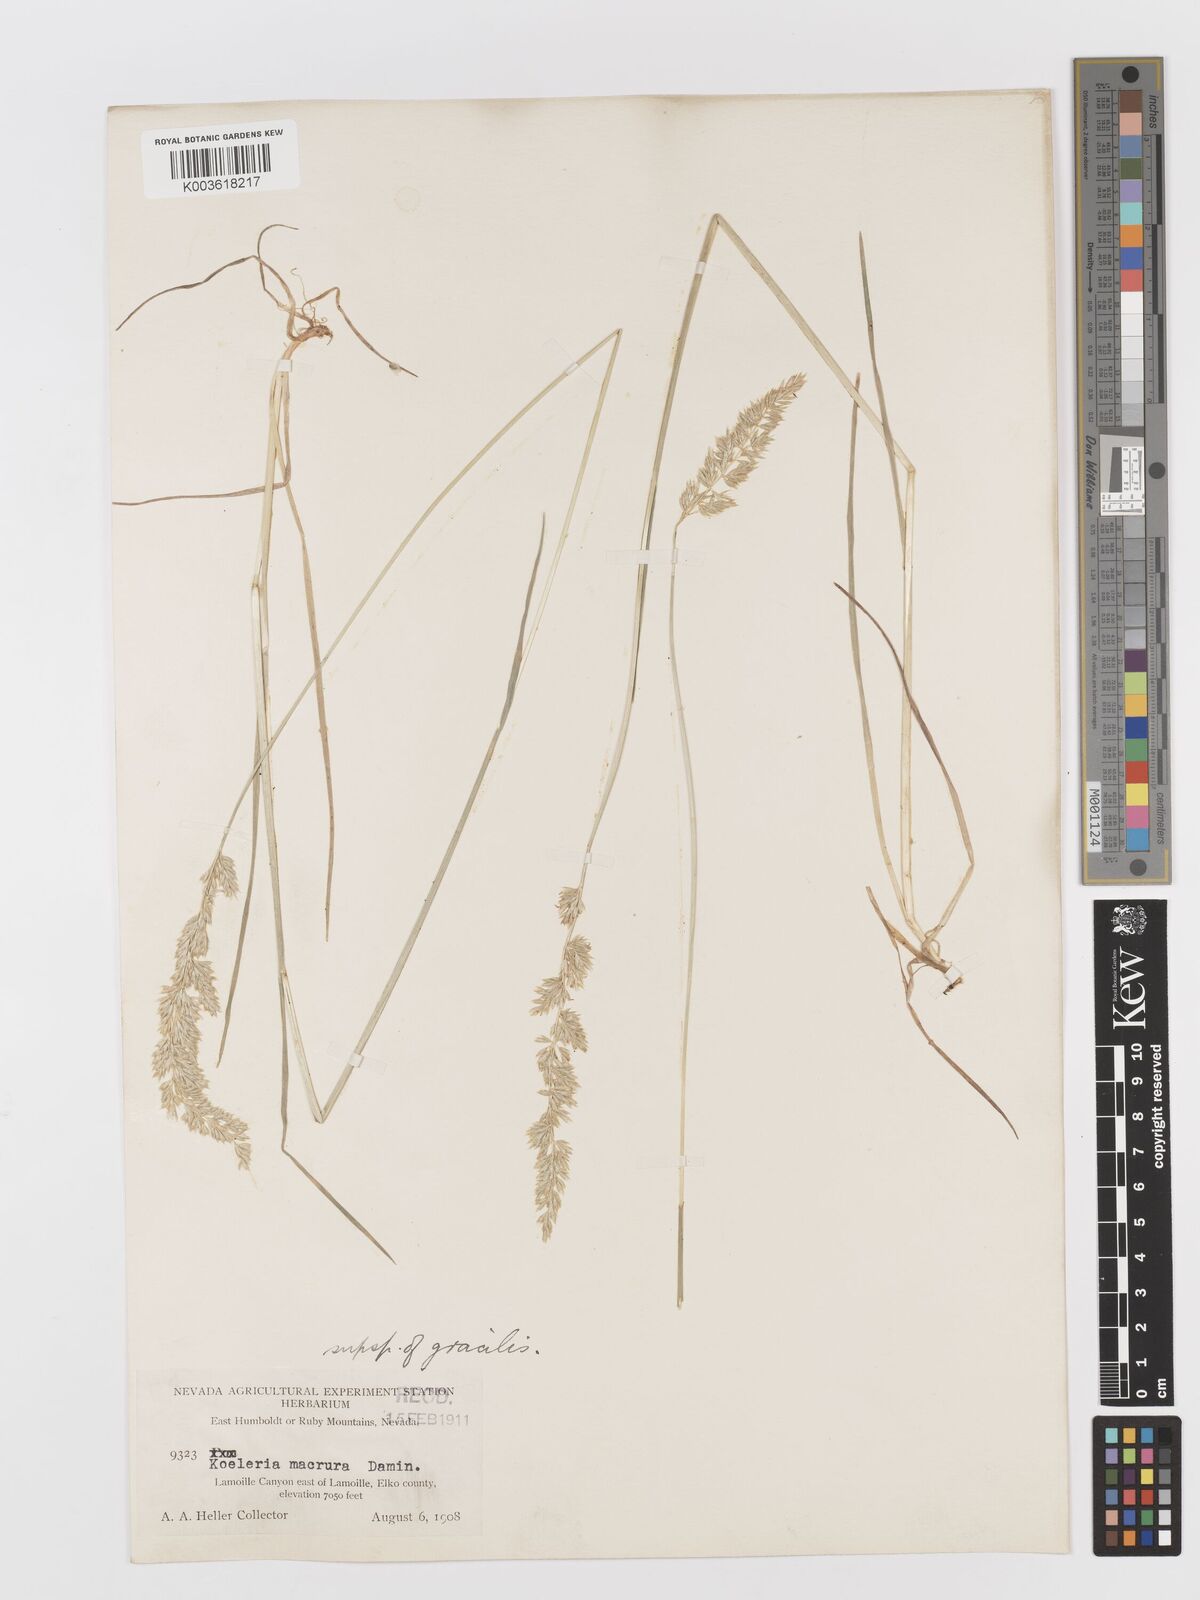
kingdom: Plantae
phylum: Tracheophyta
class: Liliopsida
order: Poales
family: Poaceae
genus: Koeleria
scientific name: Koeleria macrantha
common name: Crested hair-grass
